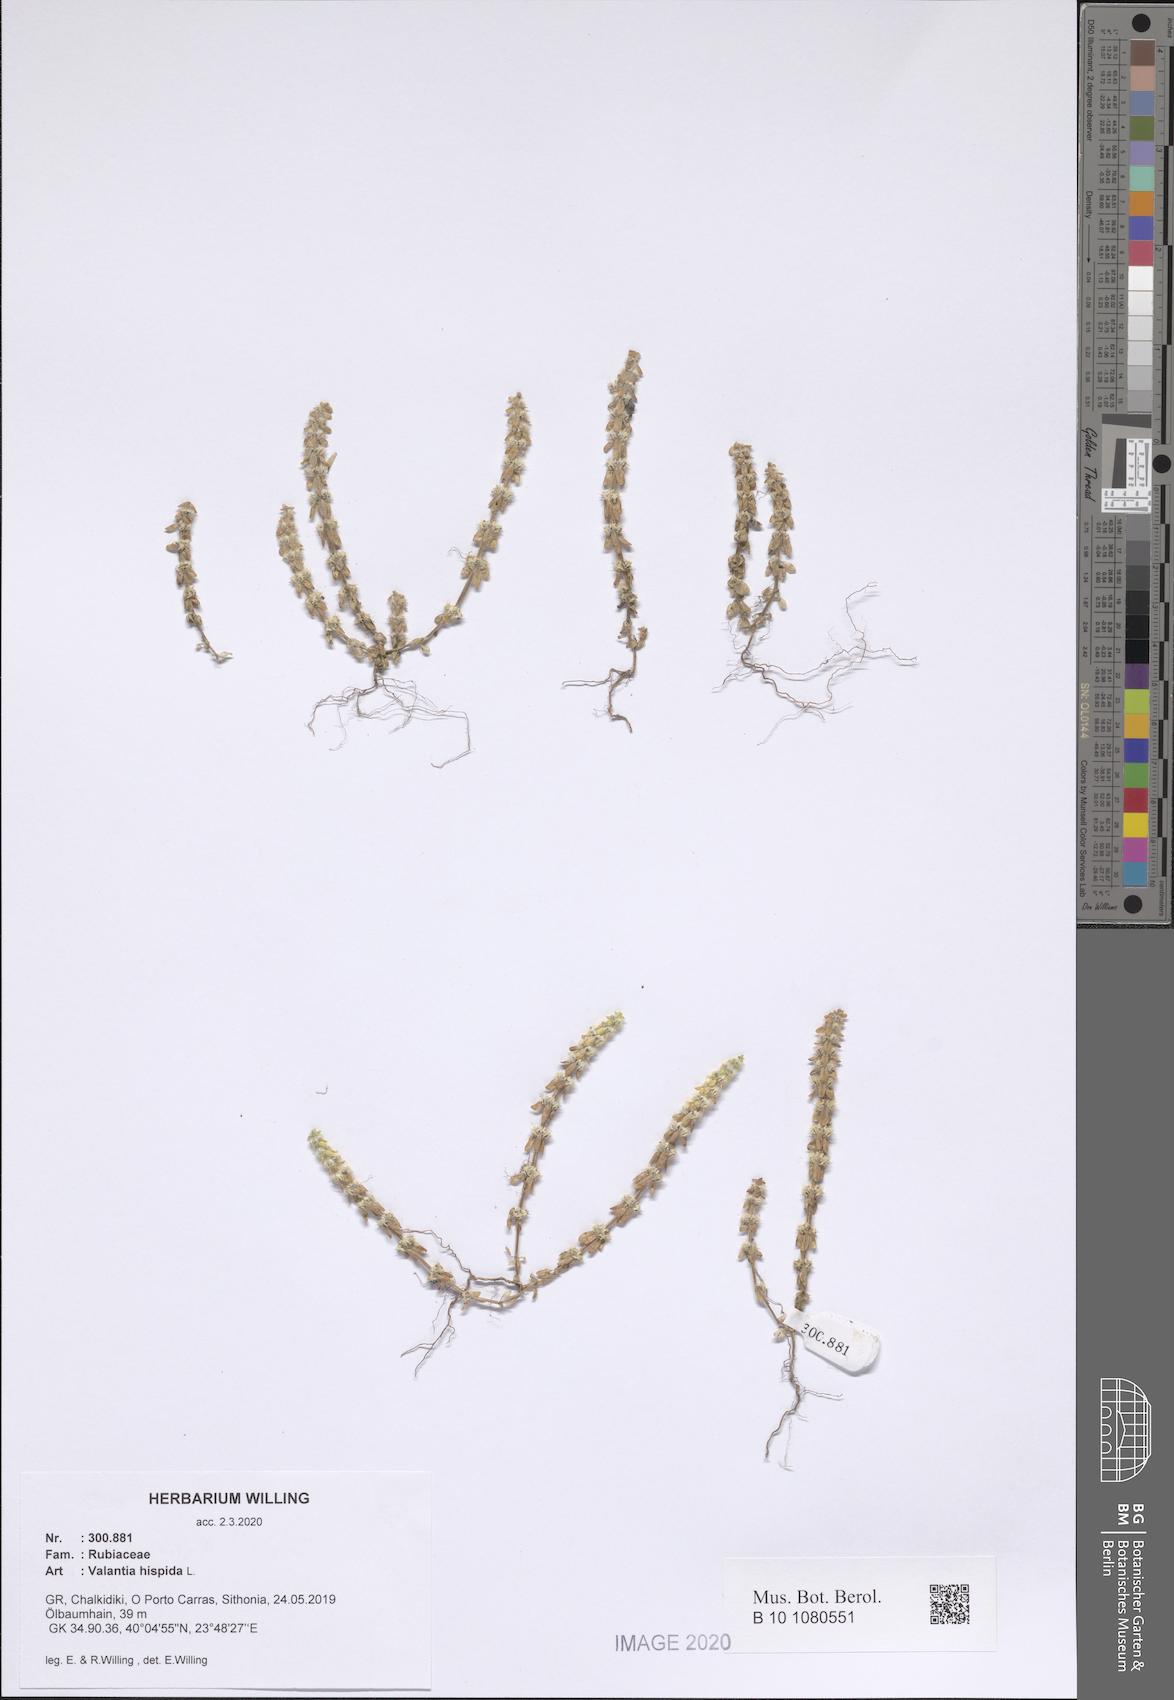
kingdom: Plantae
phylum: Tracheophyta
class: Magnoliopsida
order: Gentianales
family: Rubiaceae
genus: Valantia
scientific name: Valantia hispida
